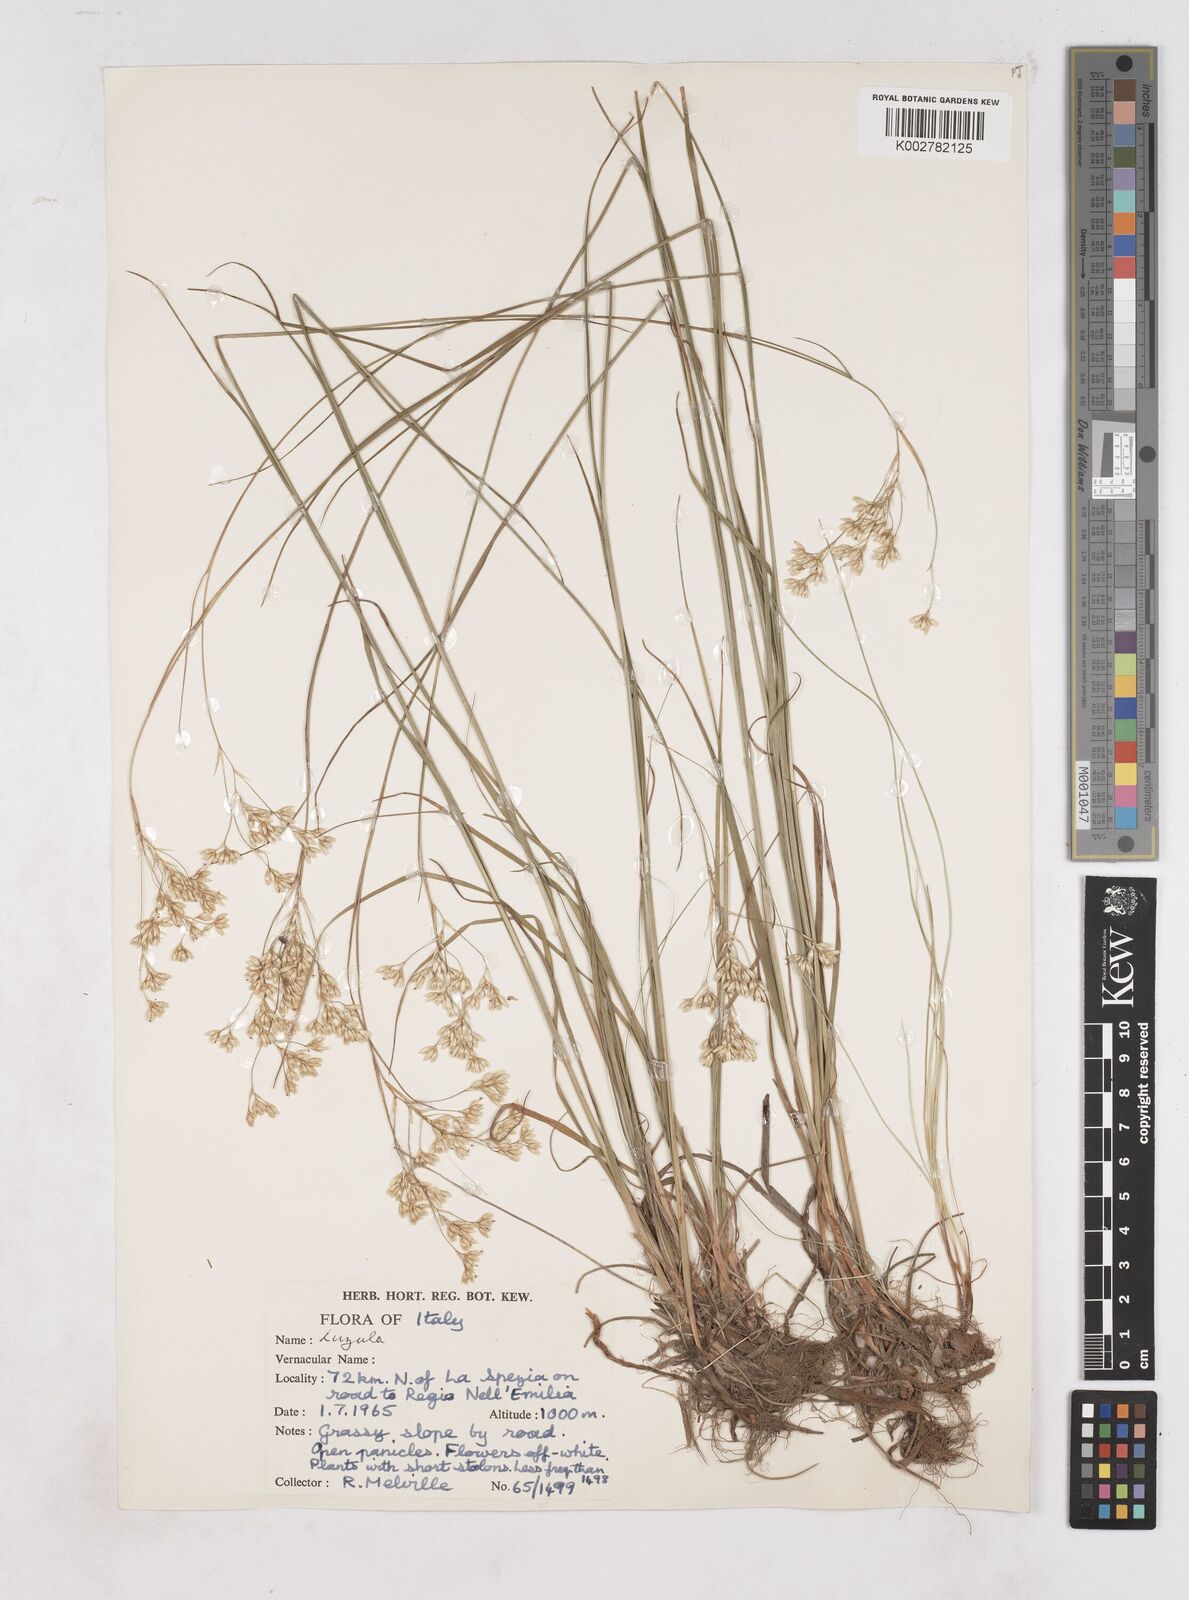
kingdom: Plantae
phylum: Tracheophyta
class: Liliopsida
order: Poales
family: Juncaceae
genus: Luzula
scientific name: Luzula nivea
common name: Snow-white wood-rush
